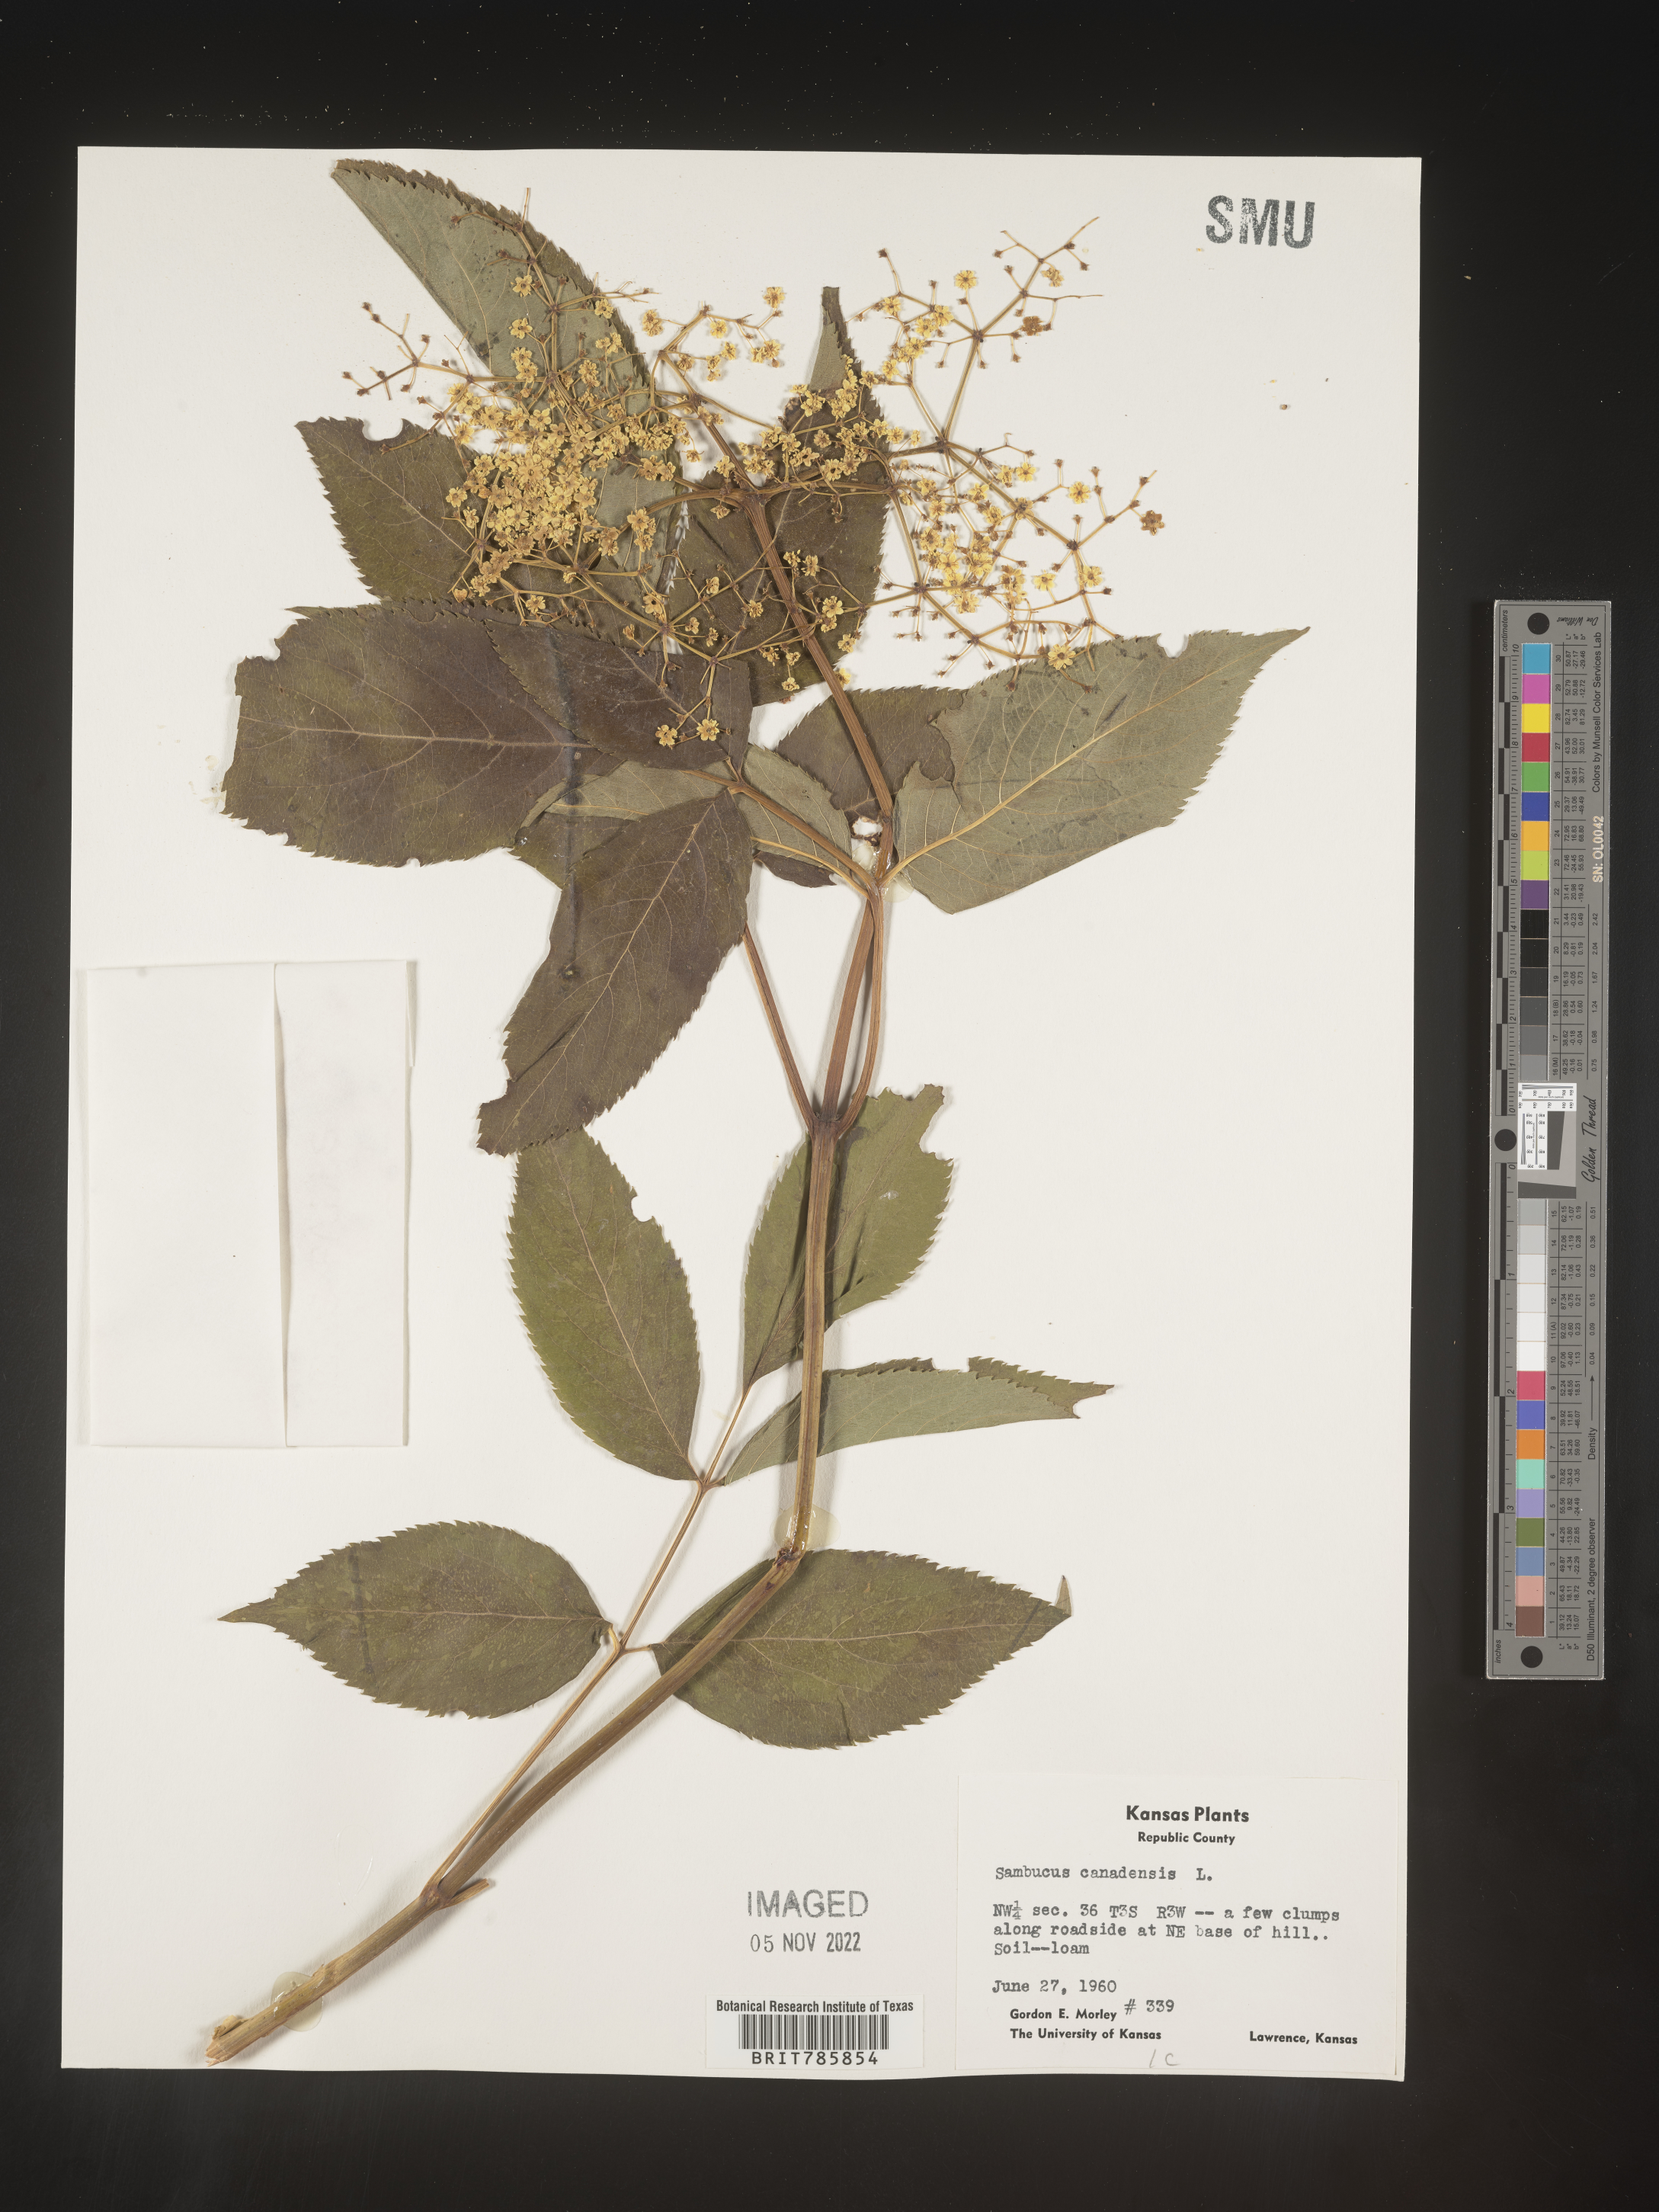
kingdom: Plantae
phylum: Tracheophyta
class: Magnoliopsida
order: Dipsacales
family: Viburnaceae
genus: Sambucus
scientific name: Sambucus nigra
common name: Elder
